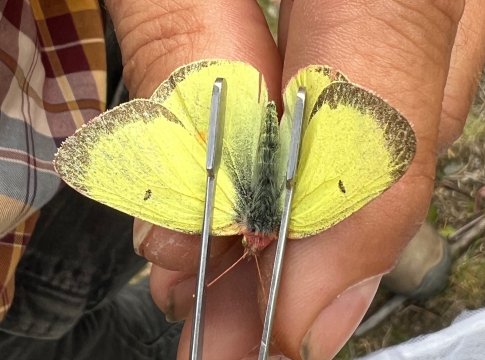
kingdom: Animalia
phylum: Arthropoda
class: Insecta
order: Lepidoptera
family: Pieridae
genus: Colias
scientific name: Colias philodice
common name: Clouded Sulphur
